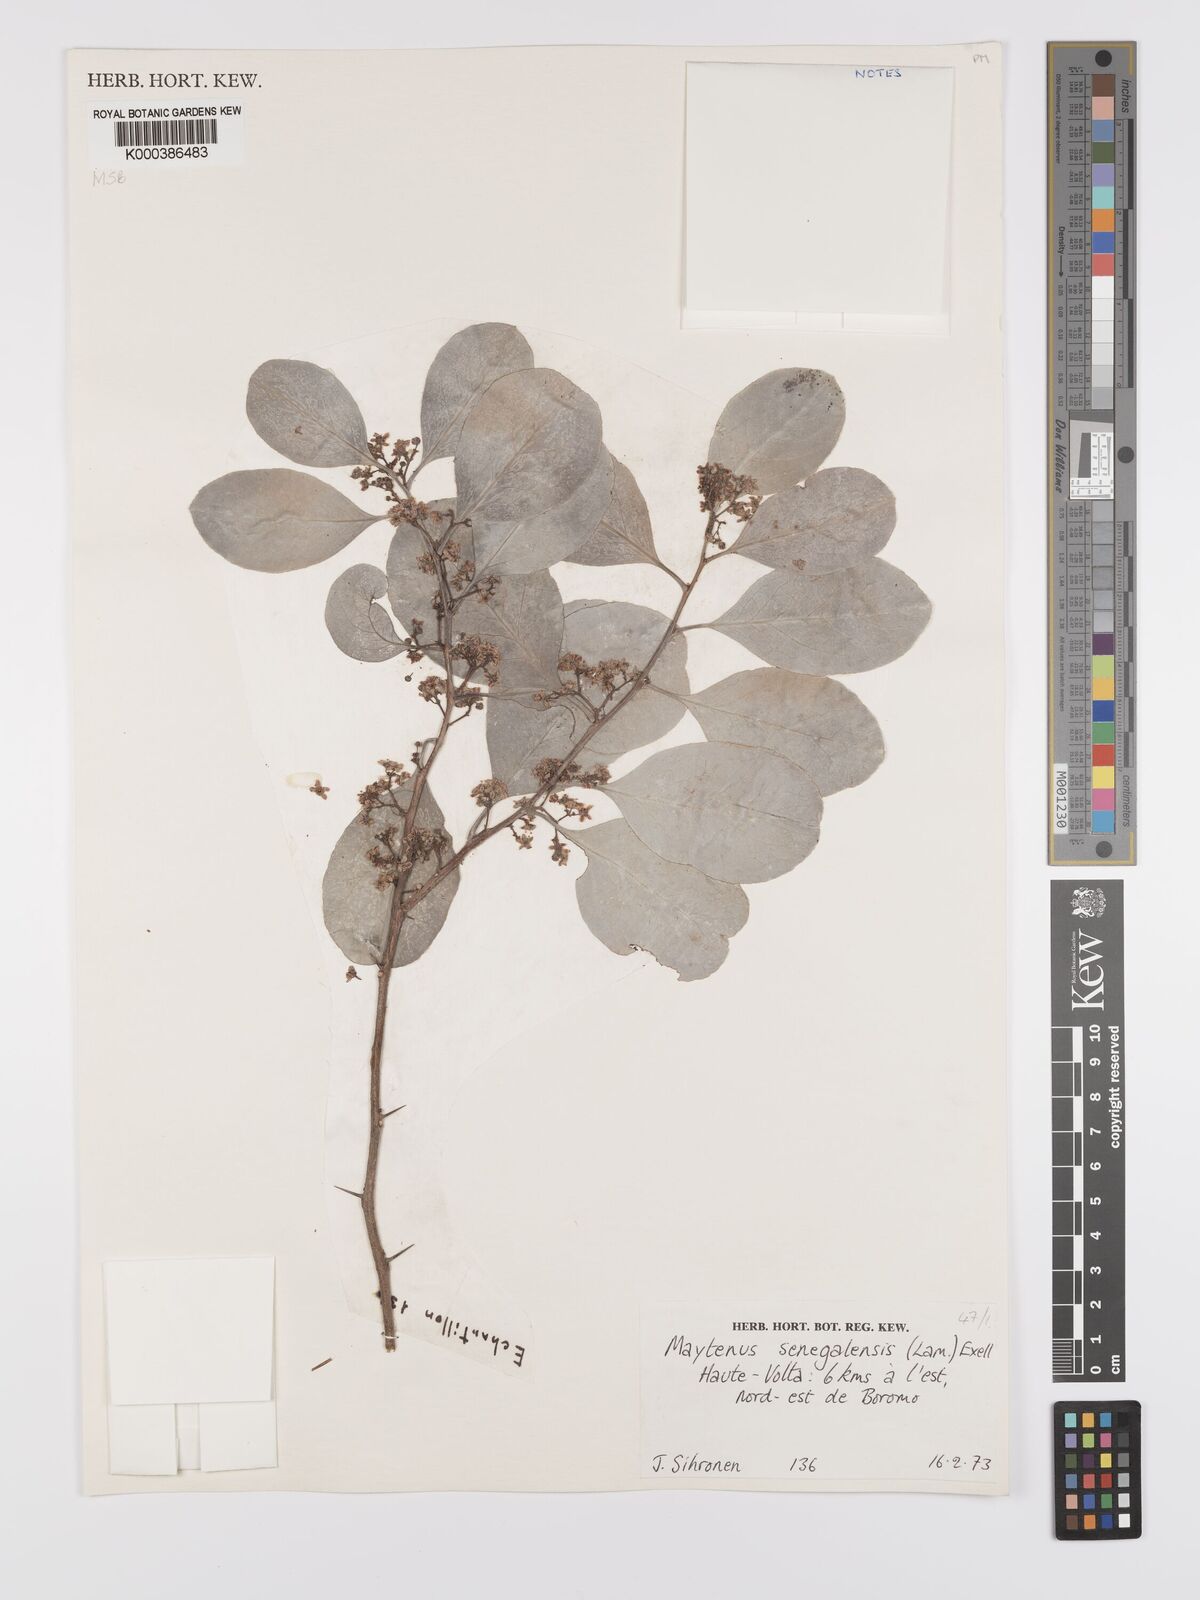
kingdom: Plantae
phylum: Tracheophyta
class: Magnoliopsida
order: Celastrales
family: Celastraceae
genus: Gymnosporia
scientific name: Gymnosporia senegalensis
